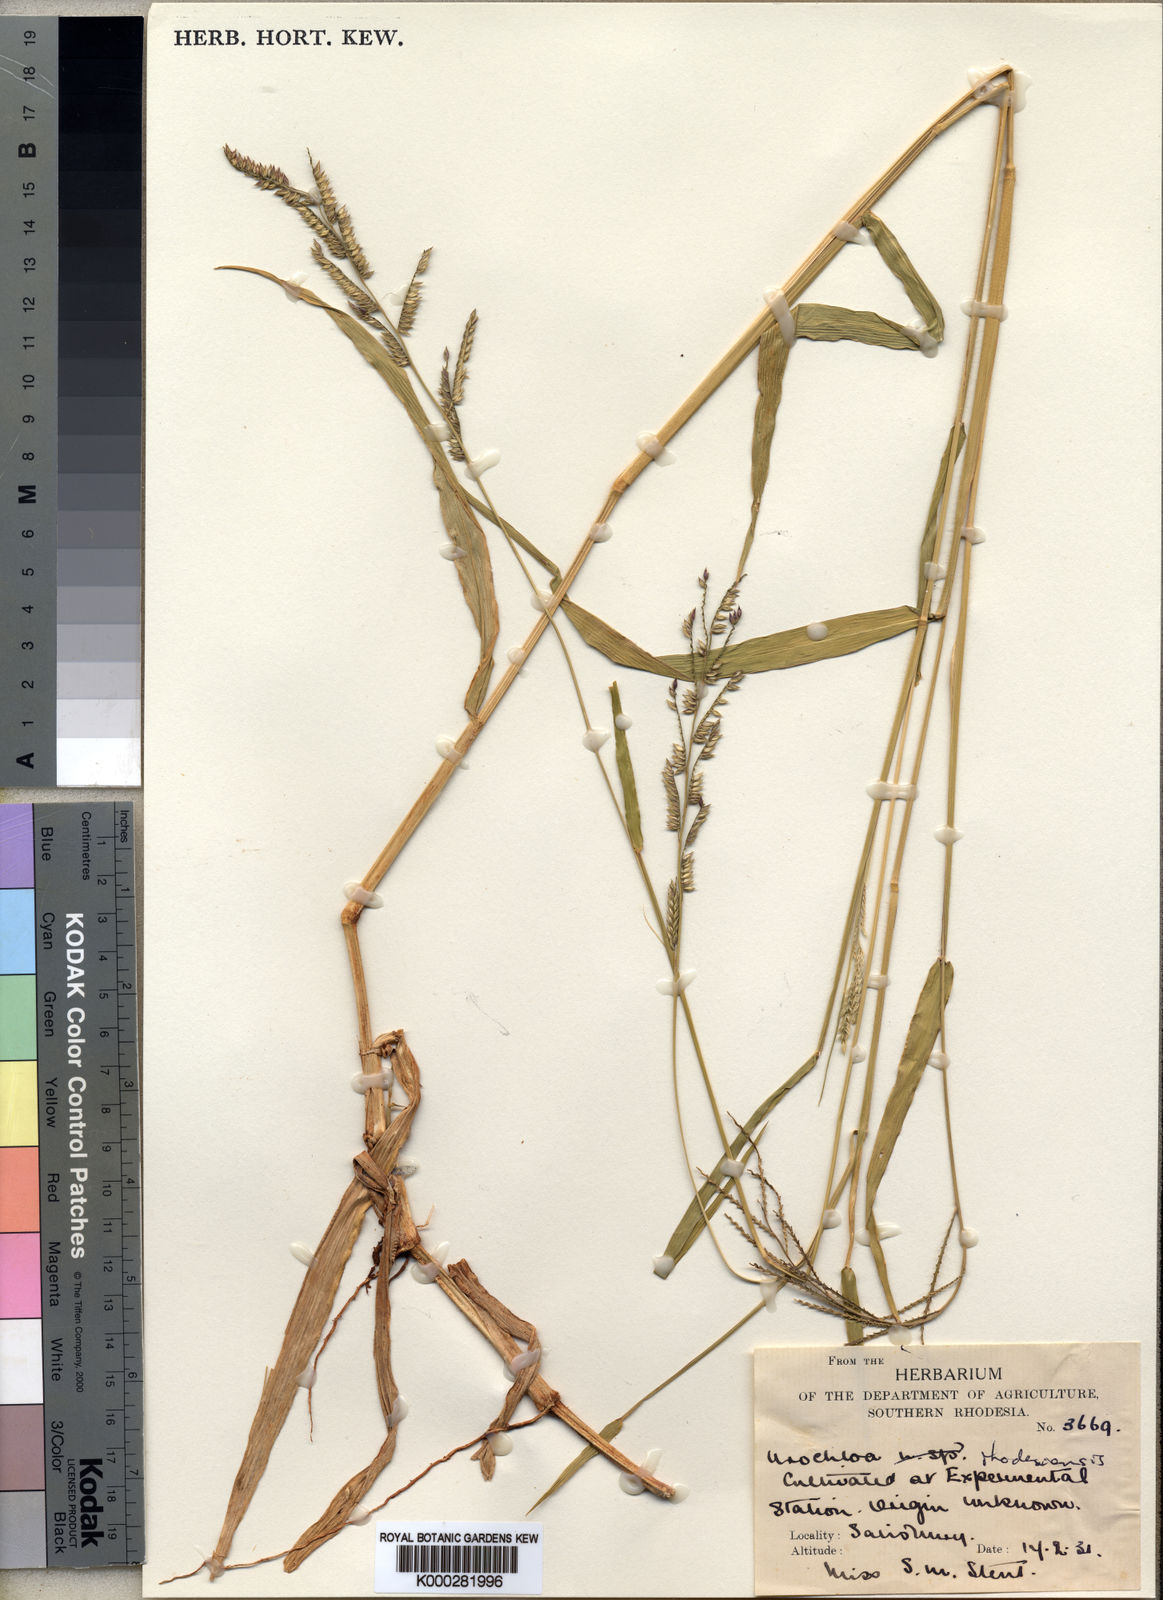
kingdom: Plantae
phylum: Tracheophyta
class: Liliopsida
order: Poales
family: Poaceae
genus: Urochloa
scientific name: Urochloa trichopus
